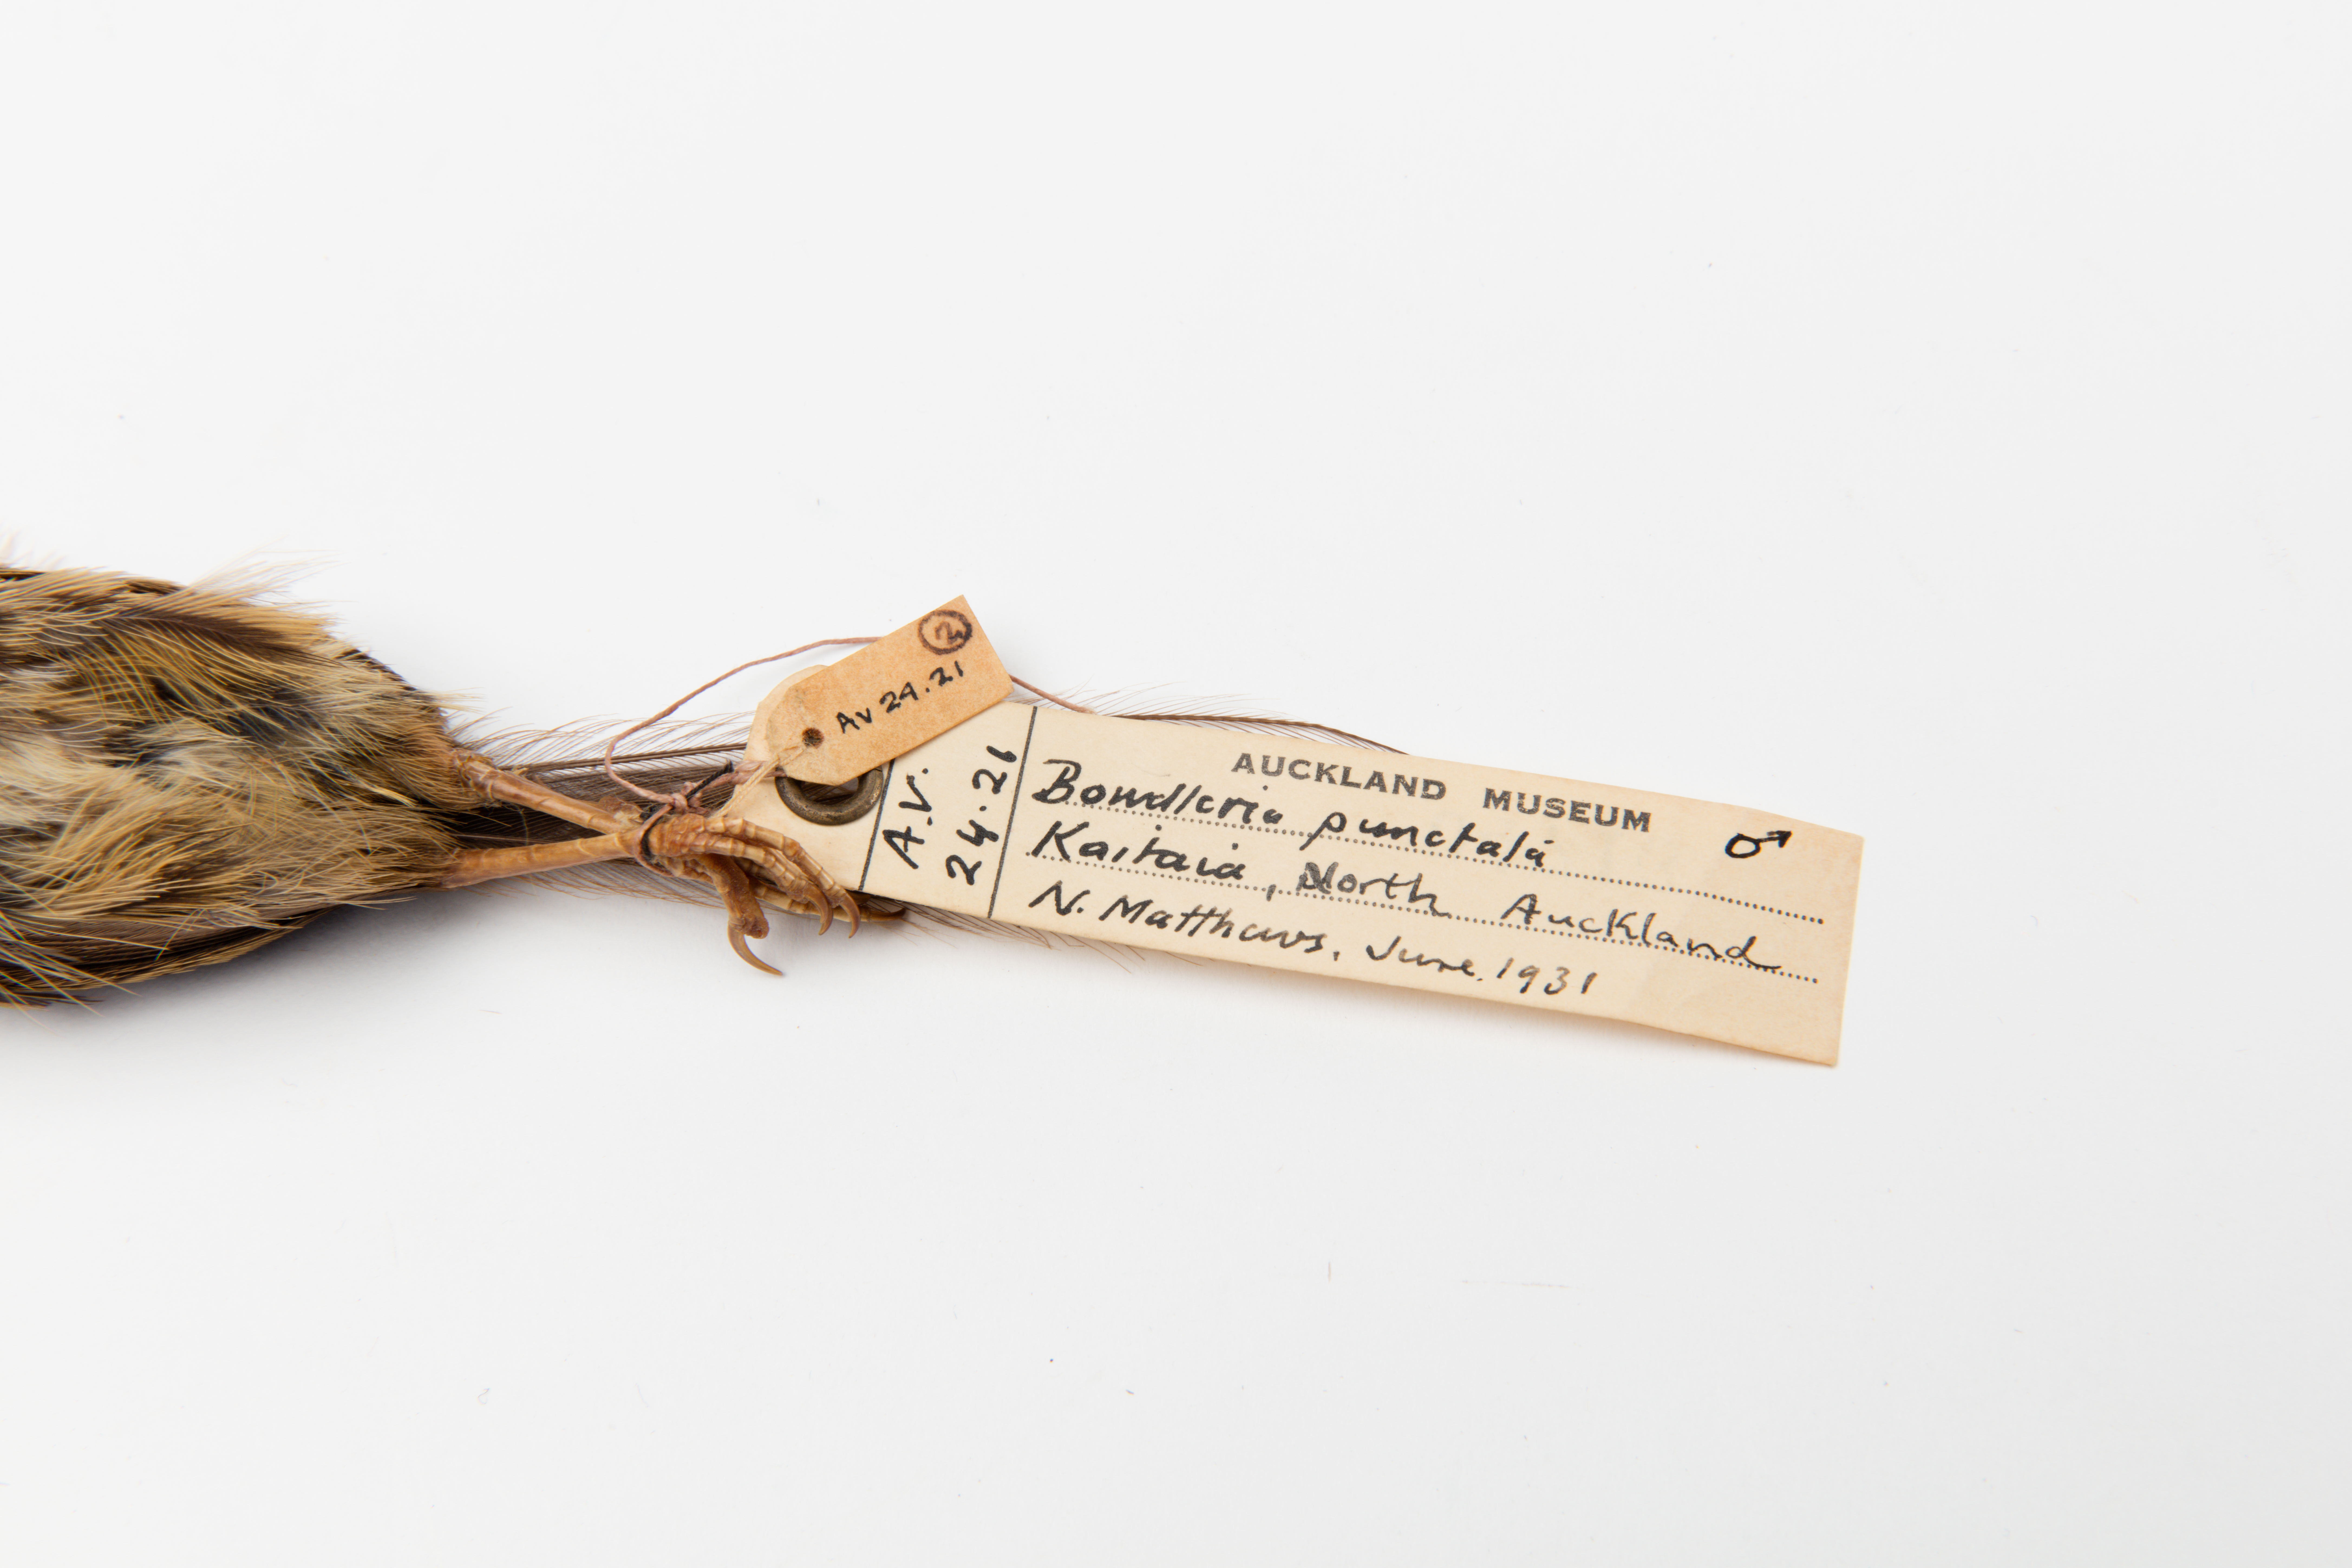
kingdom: Animalia
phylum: Chordata
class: Aves
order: Passeriformes
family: Locustellidae
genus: Megalurus
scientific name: Megalurus punctatus
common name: New zealand fernbird
